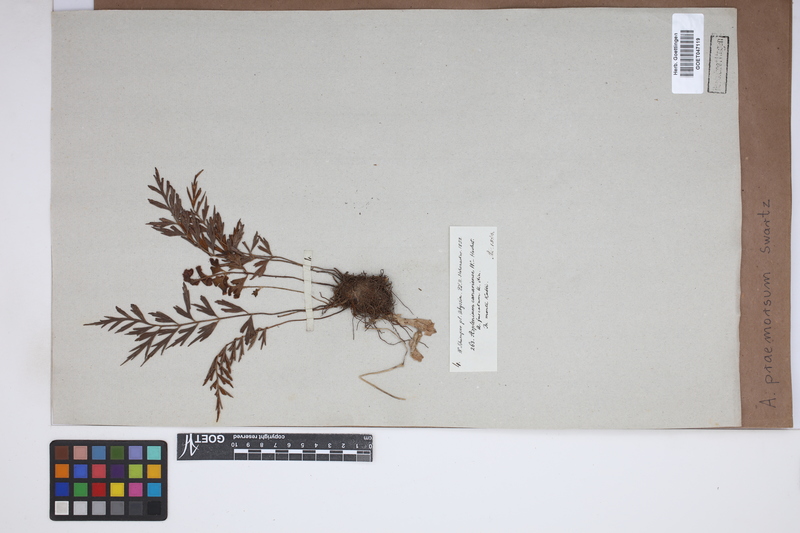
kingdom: Plantae
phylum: Tracheophyta
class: Polypodiopsida
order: Polypodiales
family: Aspleniaceae
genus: Asplenium
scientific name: Asplenium praemorsum
